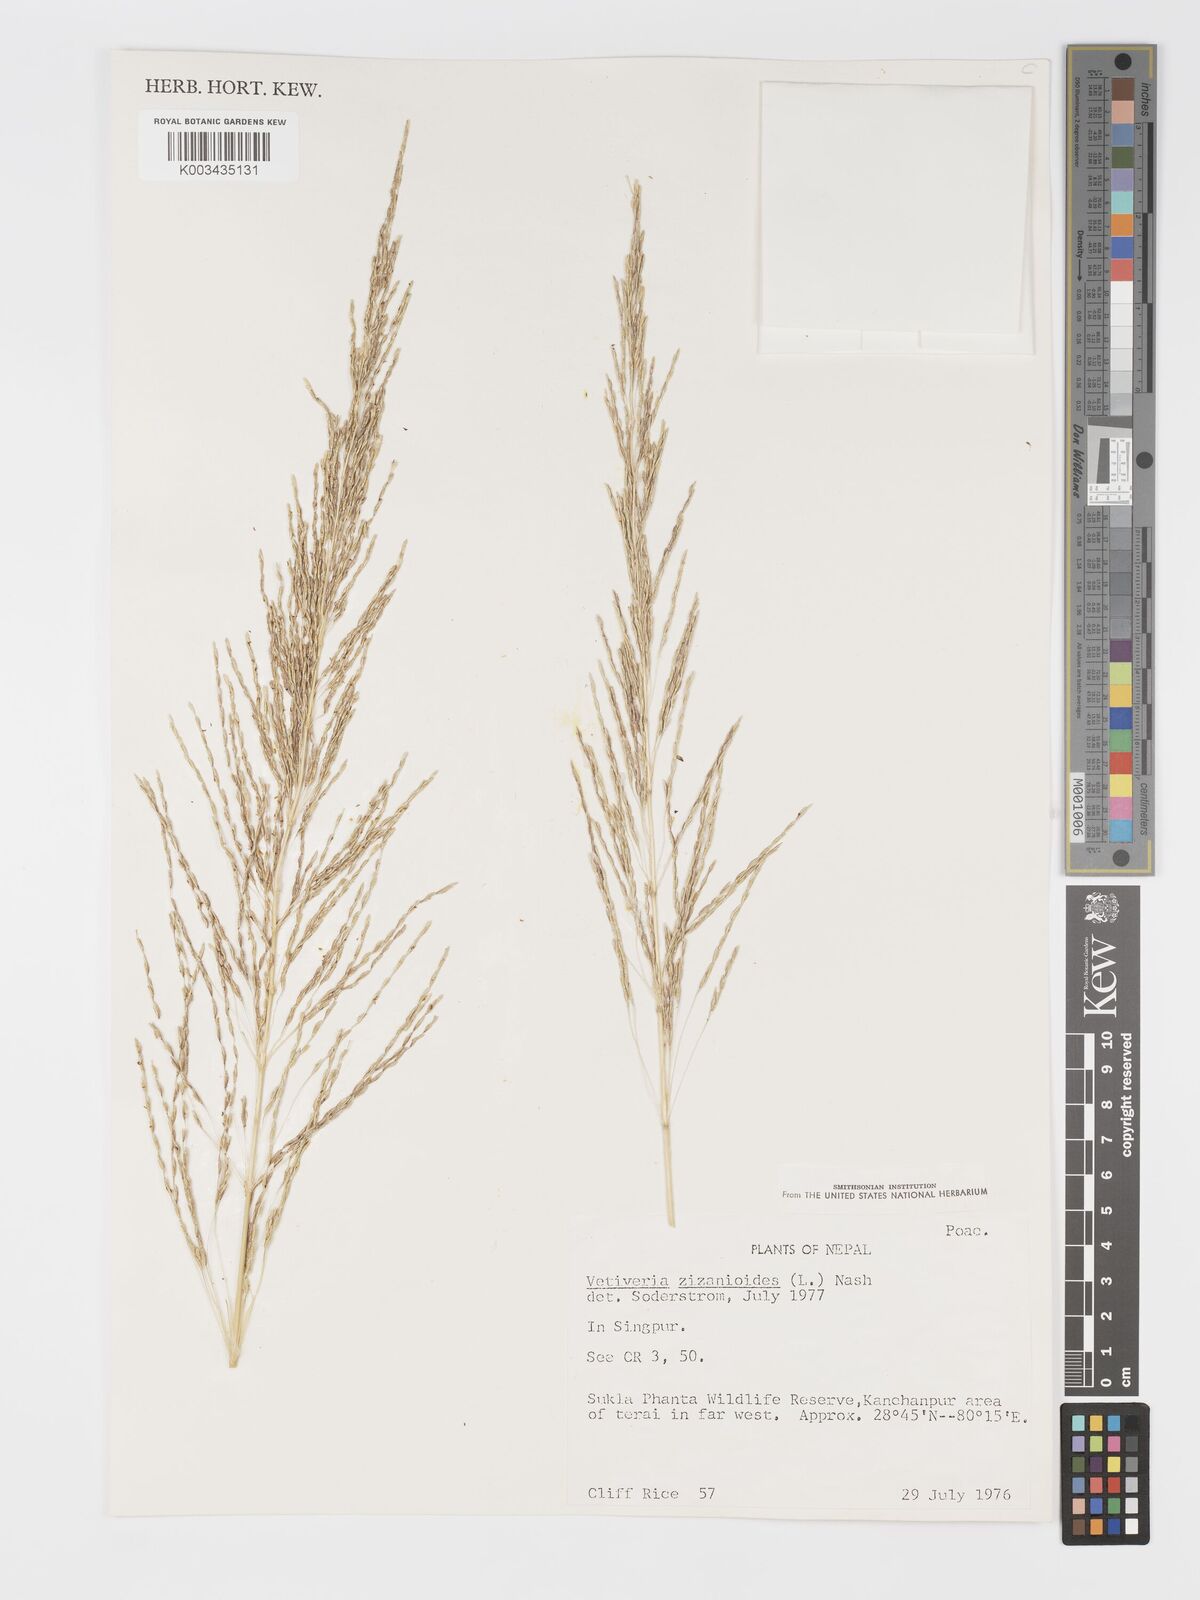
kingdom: Plantae
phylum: Tracheophyta
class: Liliopsida
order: Poales
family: Poaceae
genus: Chrysopogon
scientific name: Chrysopogon zizanioides
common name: False beardgrass
